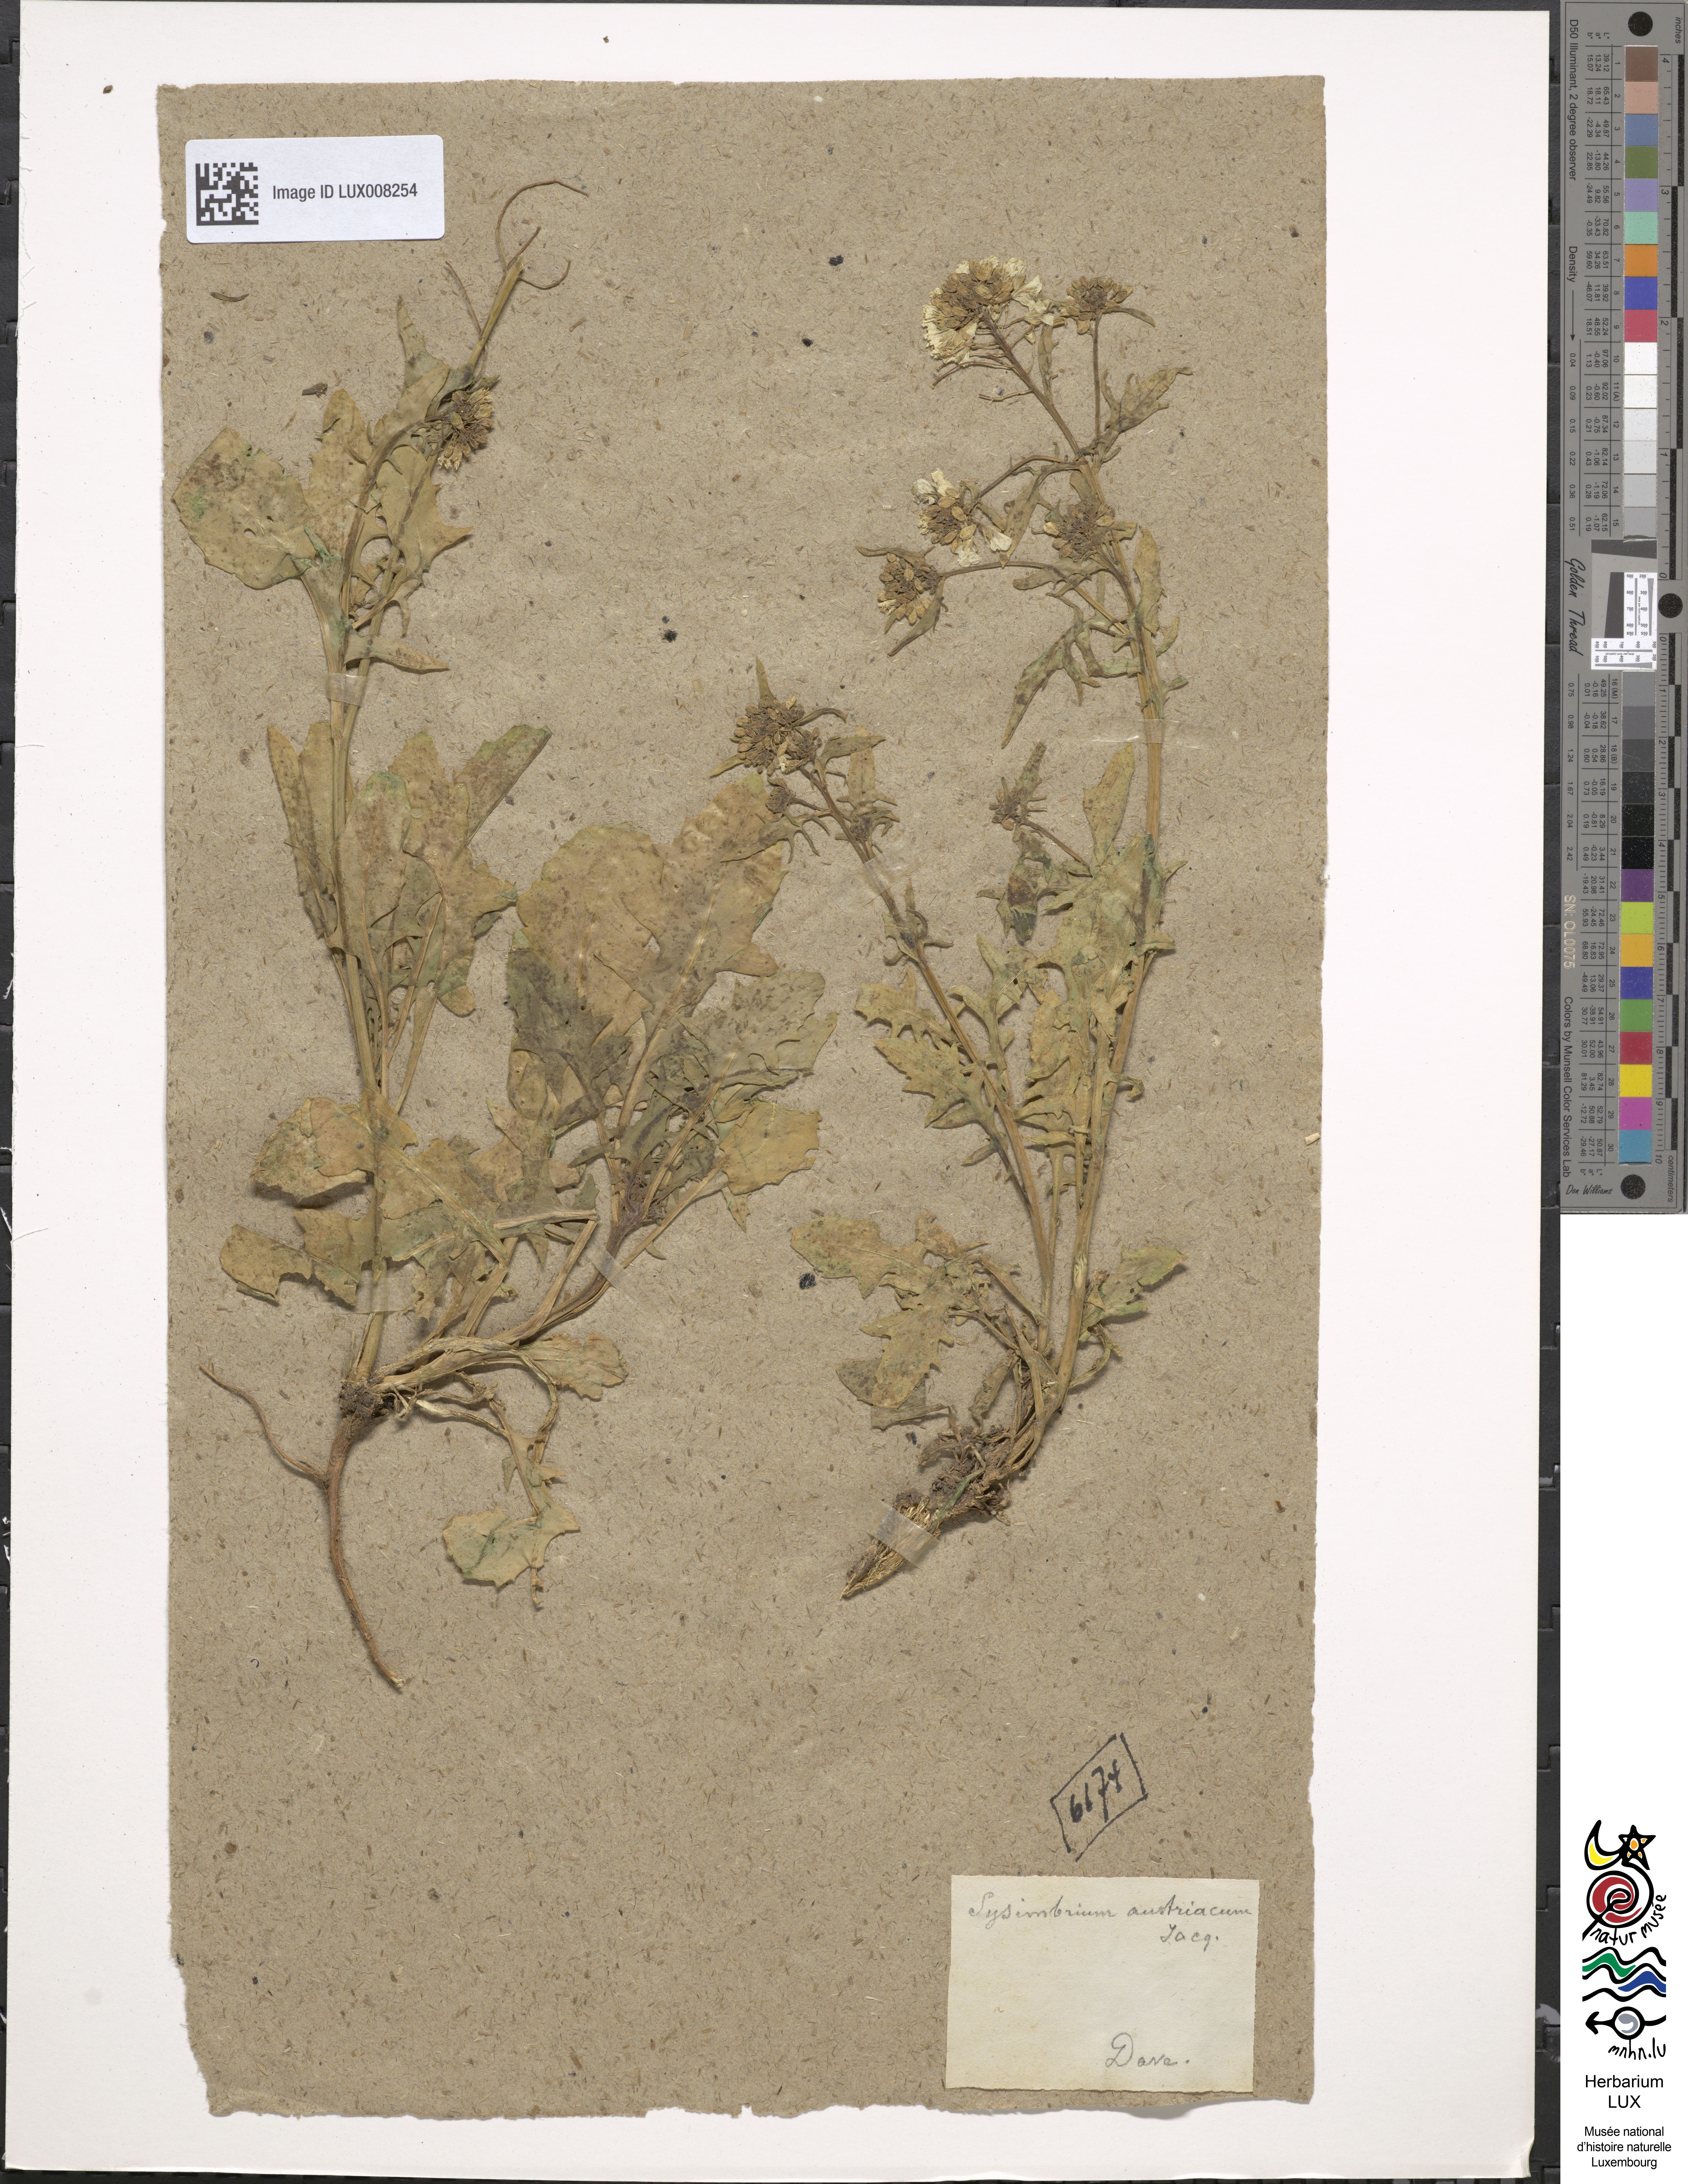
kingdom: Plantae
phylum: Tracheophyta
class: Magnoliopsida
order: Brassicales
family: Brassicaceae
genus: Sisymbrium
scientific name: Sisymbrium austriacum
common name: Jeweled rocket
